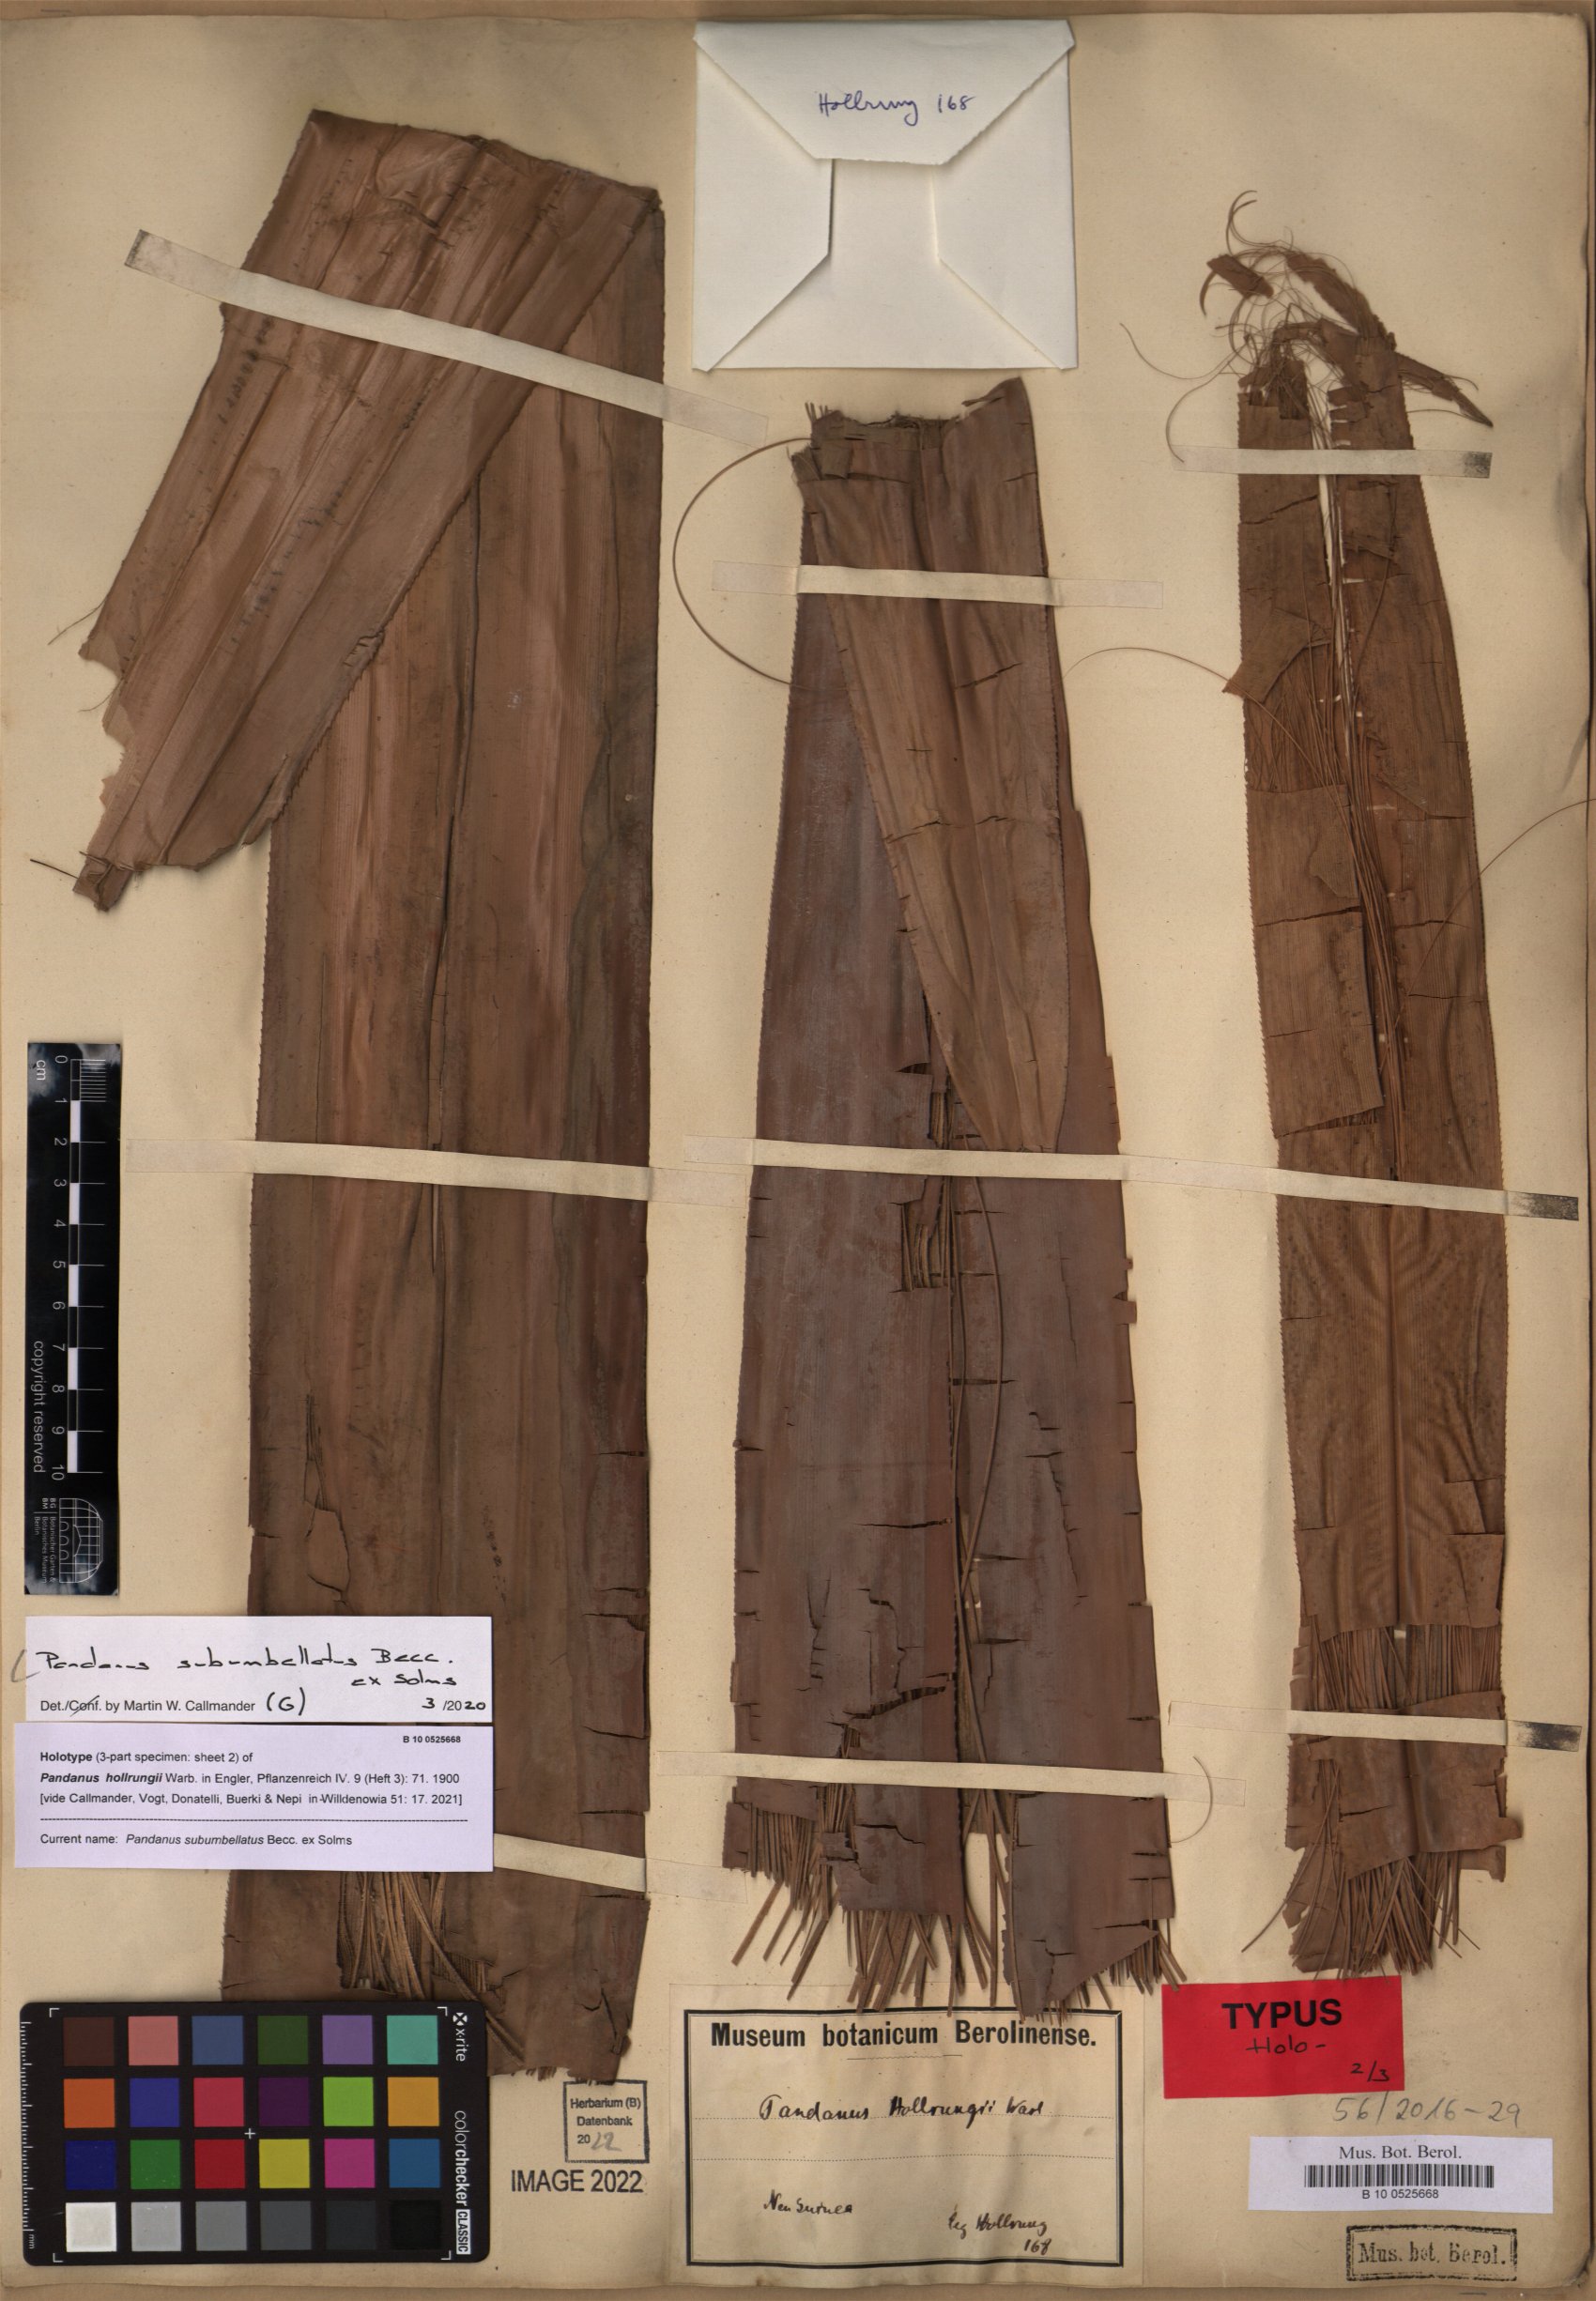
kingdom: Plantae
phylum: Tracheophyta
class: Liliopsida
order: Pandanales
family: Pandanaceae
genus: Pandanus
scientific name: Pandanus conoideus
